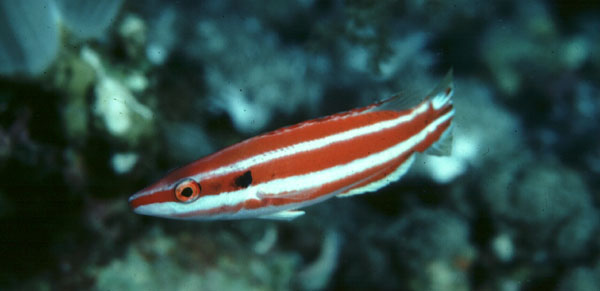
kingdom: Animalia
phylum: Chordata
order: Perciformes
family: Labridae
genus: Bodianus
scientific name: Bodianus opercularis
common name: Blackspot hogfish
